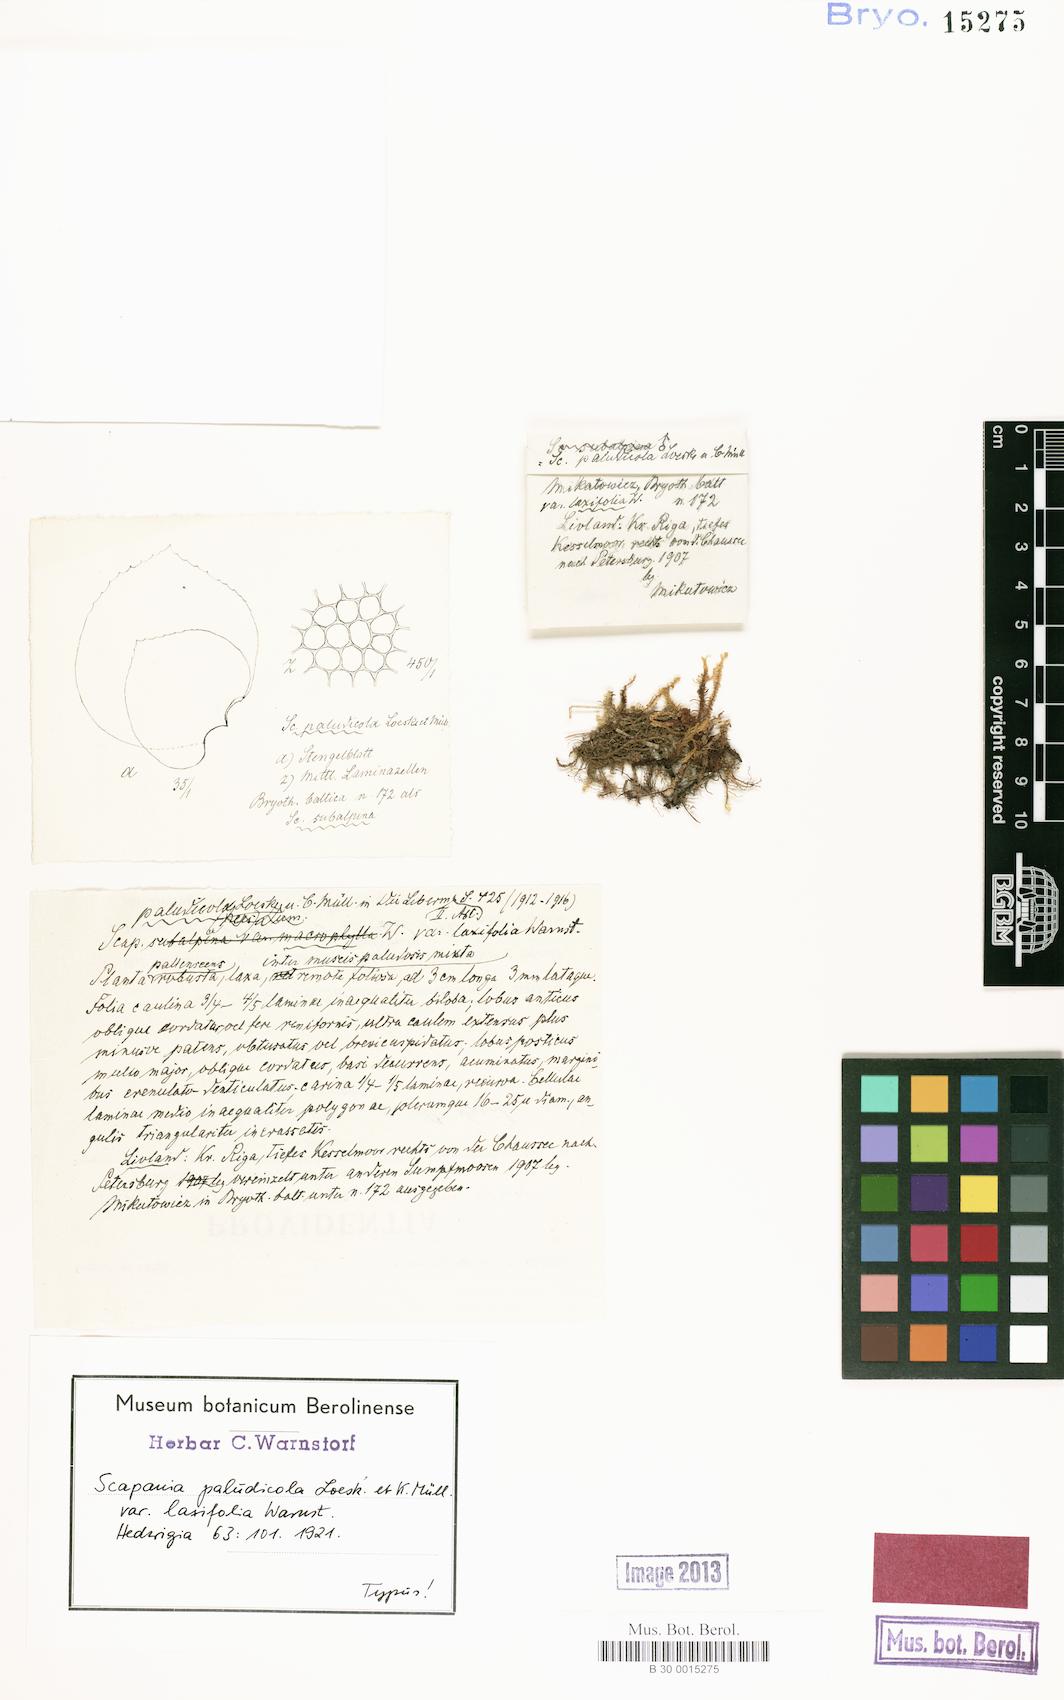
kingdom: Plantae
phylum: Marchantiophyta
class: Jungermanniopsida
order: Jungermanniales
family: Scapaniaceae
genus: Scapania
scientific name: Scapania paludicola
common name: Bog earwort
